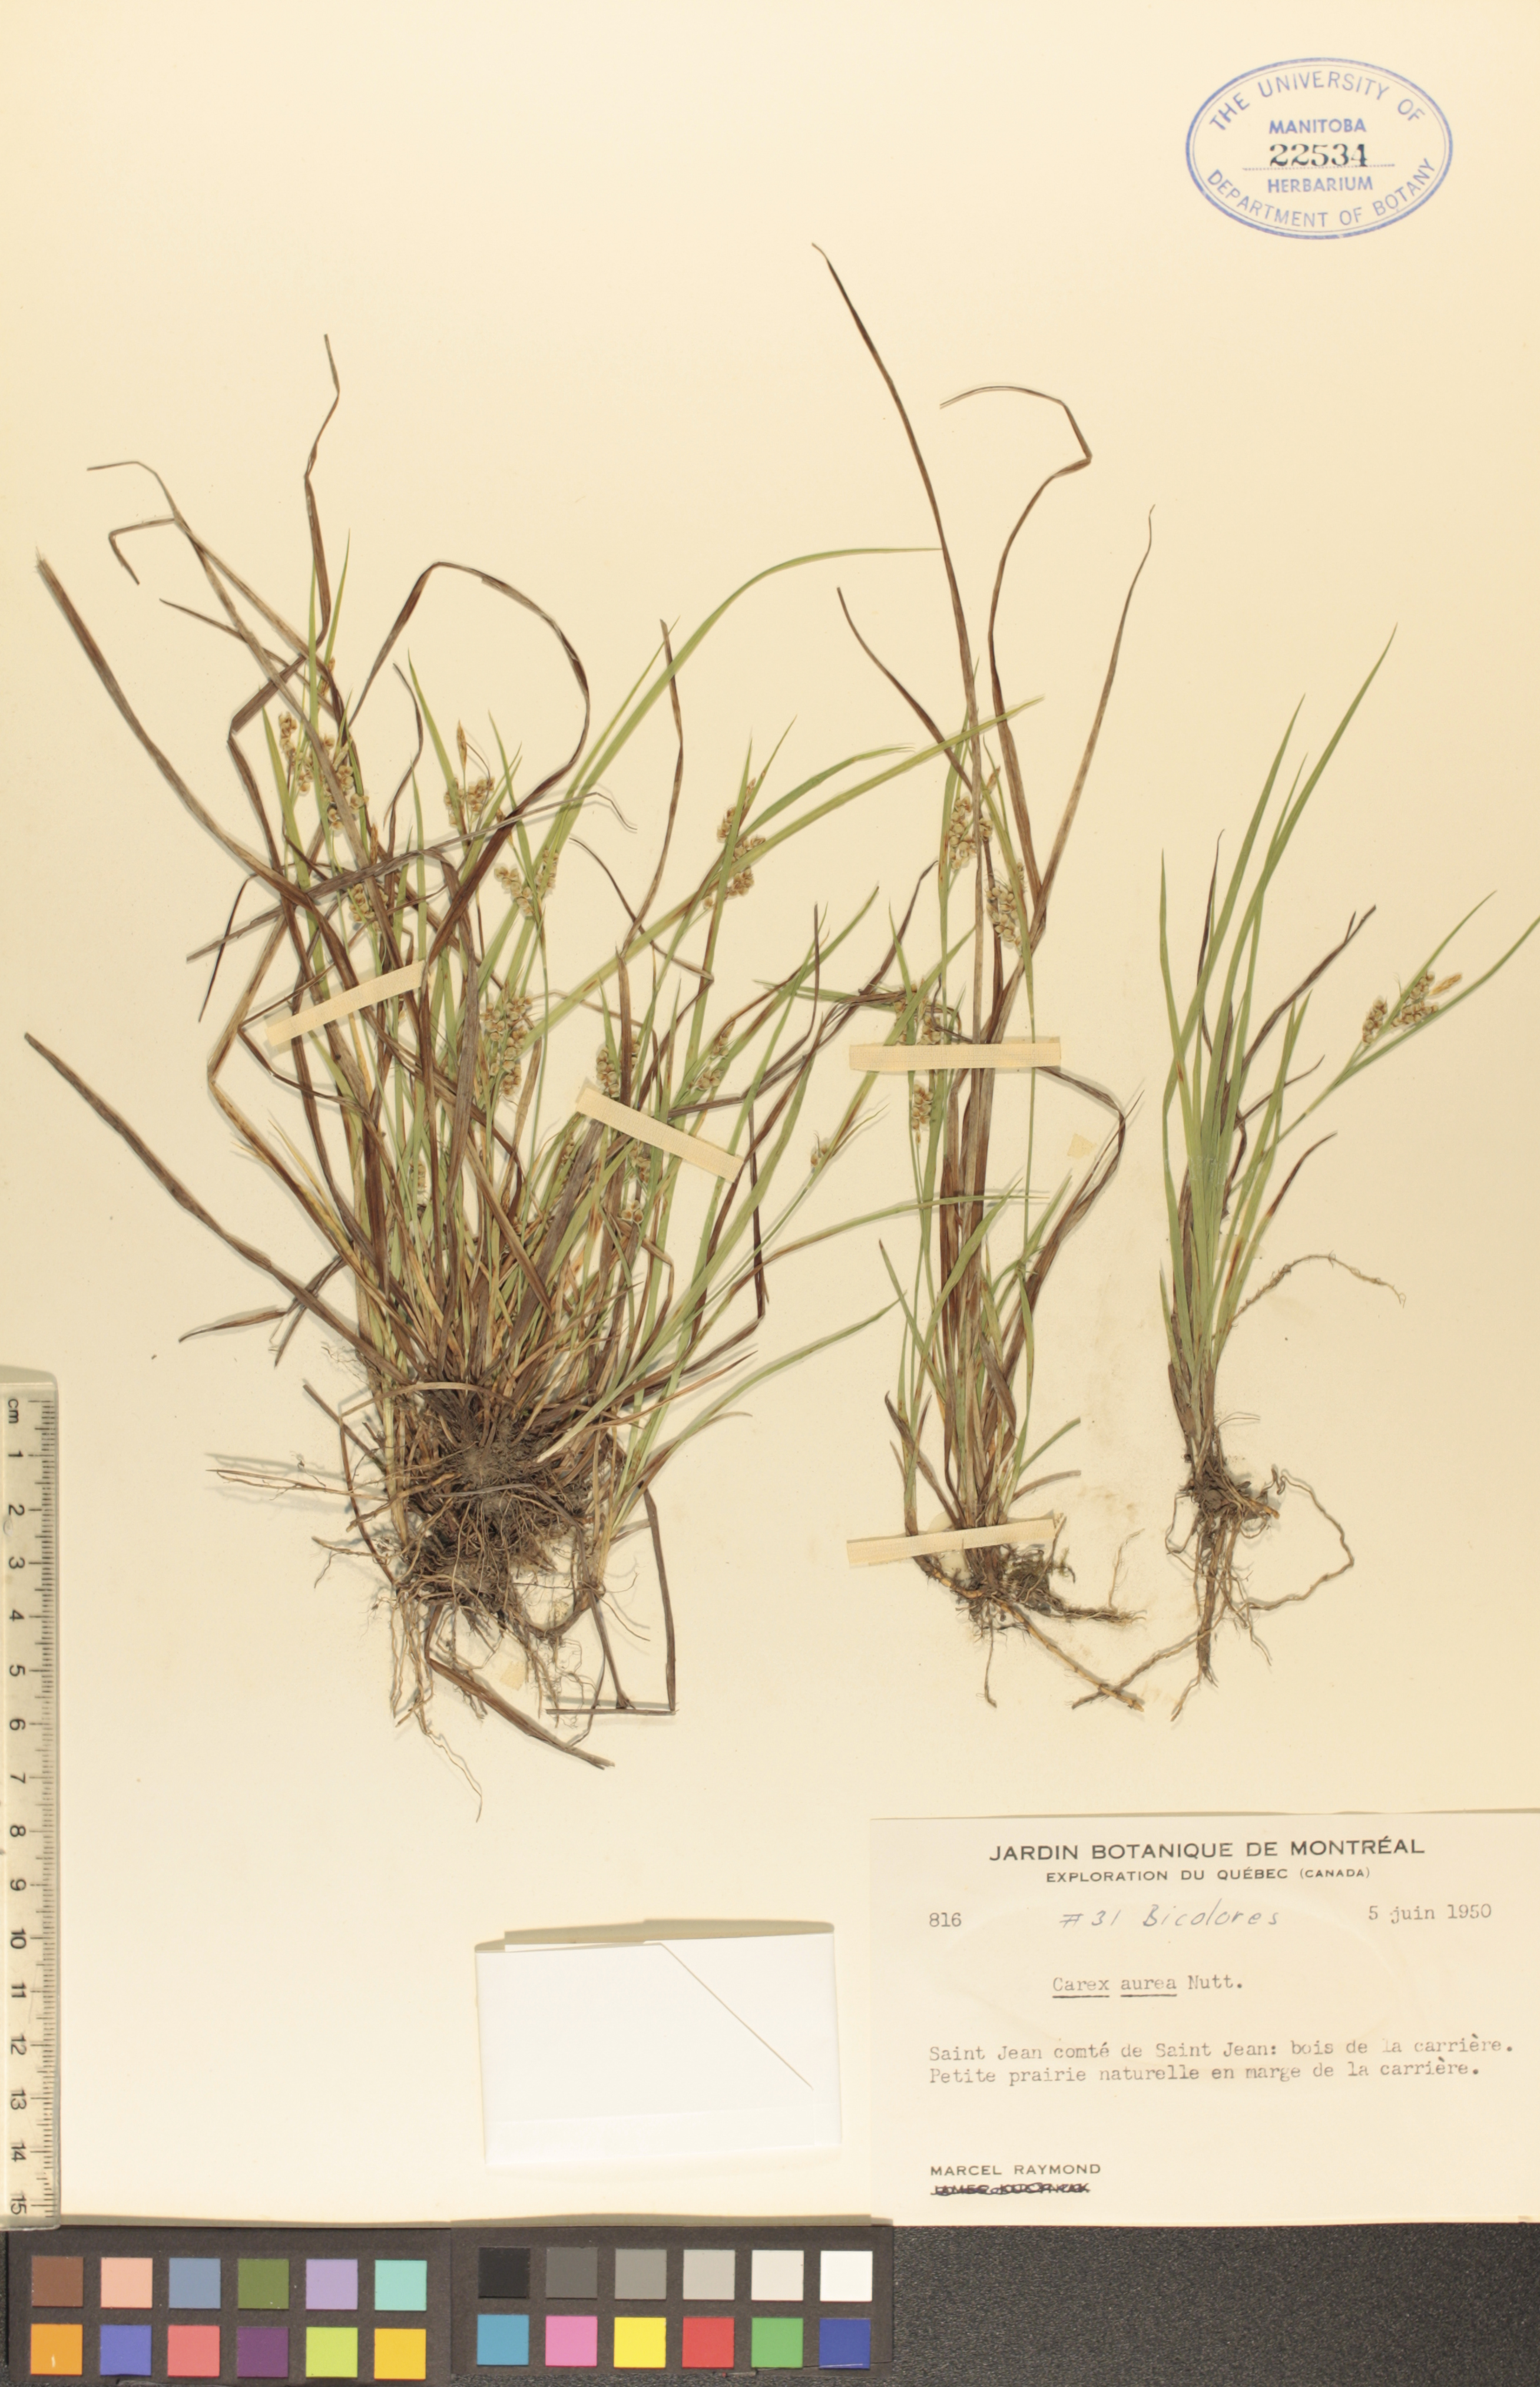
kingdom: Plantae
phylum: Tracheophyta
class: Liliopsida
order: Poales
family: Cyperaceae
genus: Carex
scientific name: Carex aurea
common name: Golden sedge
